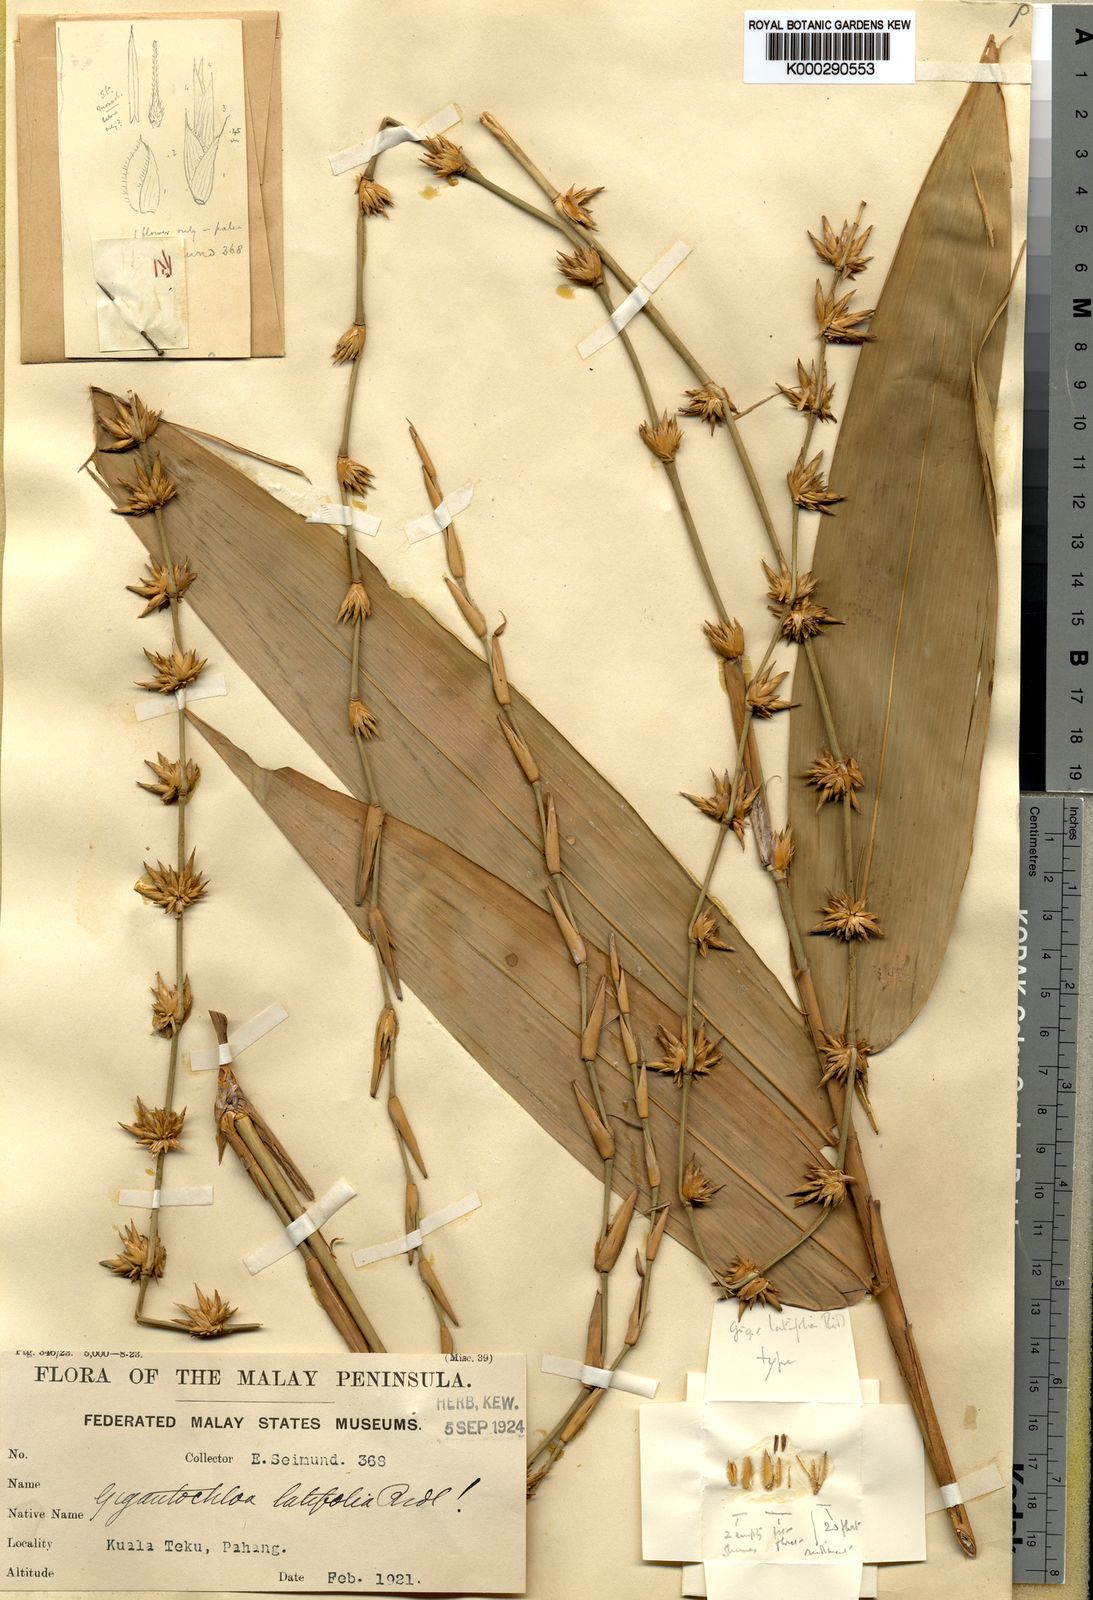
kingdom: Plantae
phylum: Tracheophyta
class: Liliopsida
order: Poales
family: Poaceae
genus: Gigantochloa
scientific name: Gigantochloa latifolia
